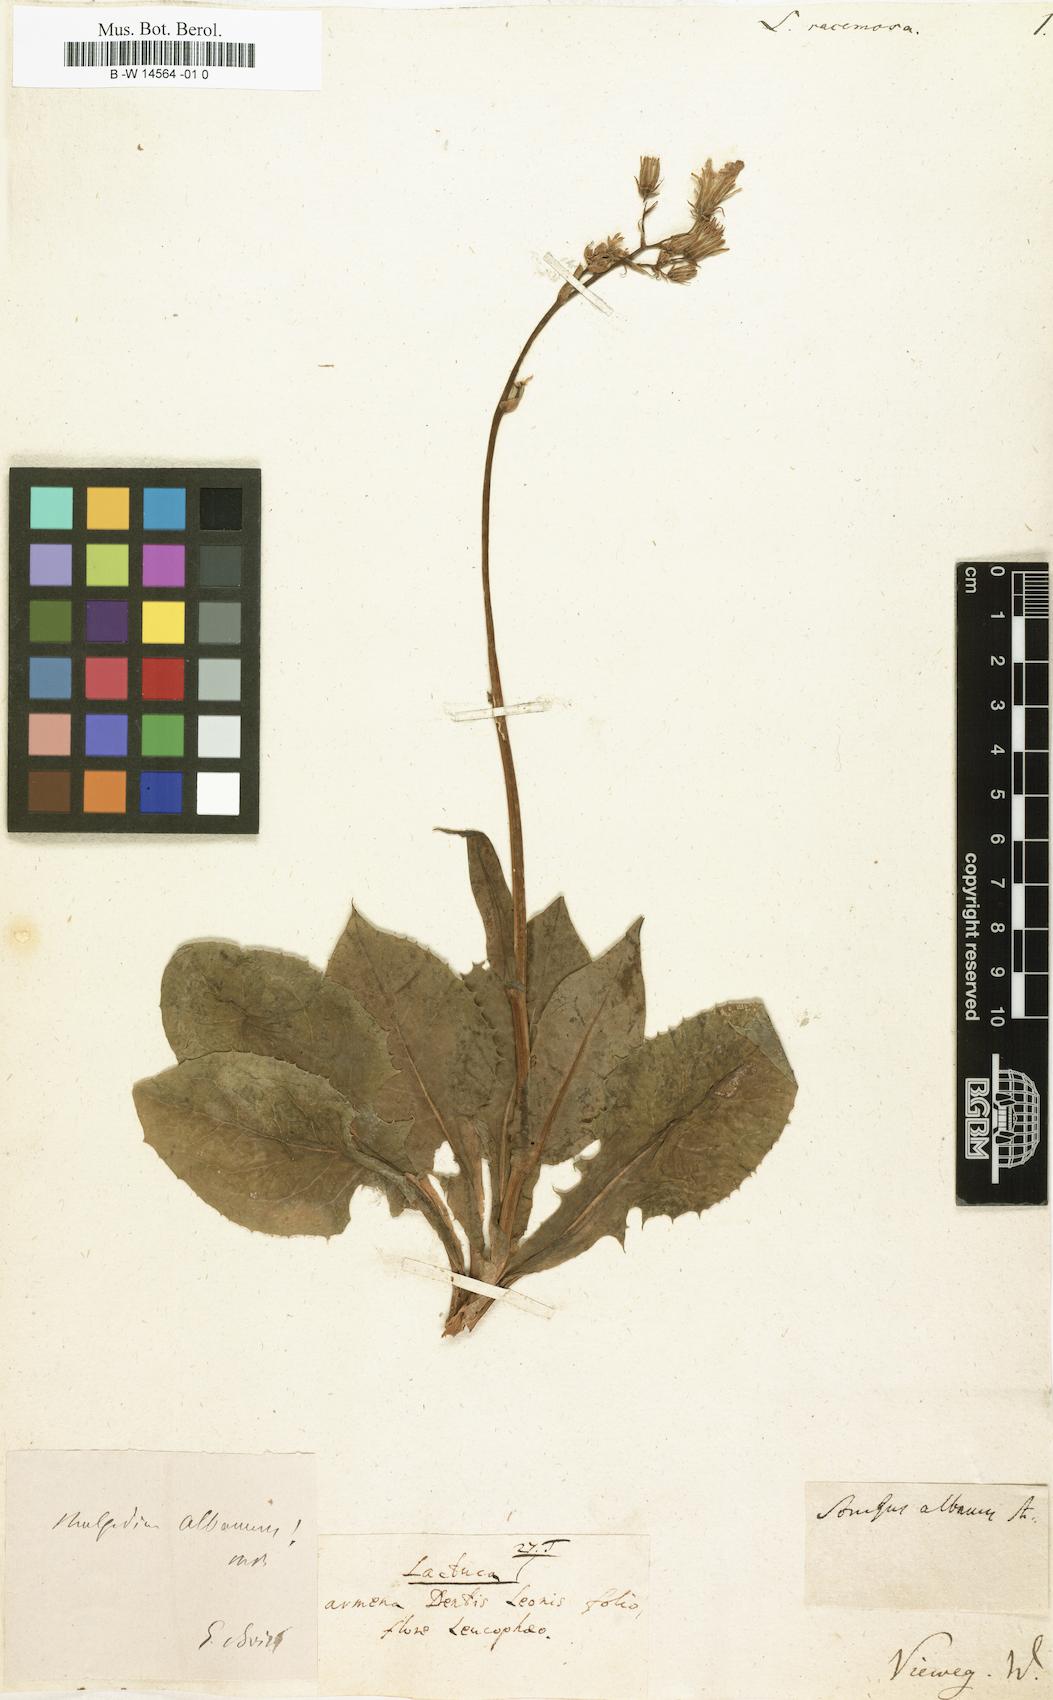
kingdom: Plantae
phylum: Tracheophyta
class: Magnoliopsida
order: Asterales
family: Asteraceae
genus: Lactuca
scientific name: Lactuca racemosa
